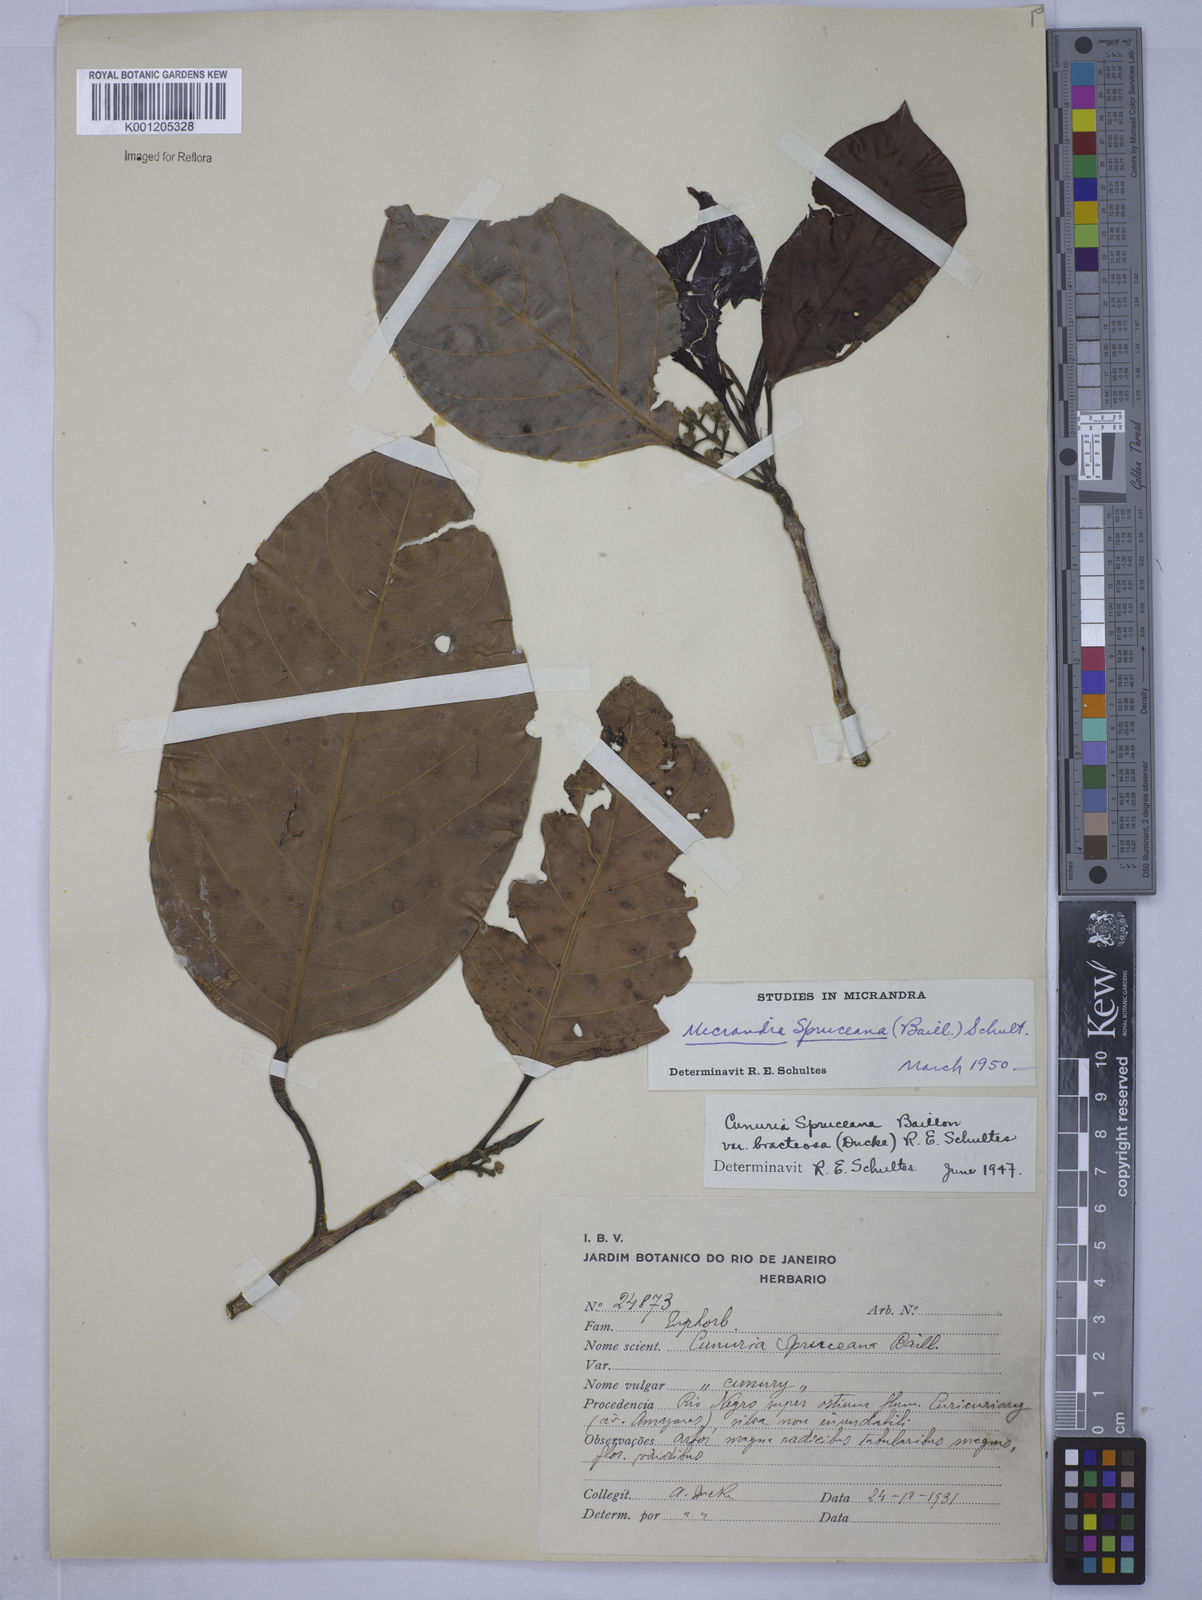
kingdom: Plantae
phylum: Tracheophyta
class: Magnoliopsida
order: Malpighiales
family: Euphorbiaceae
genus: Micrandra
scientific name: Micrandra spruceana
